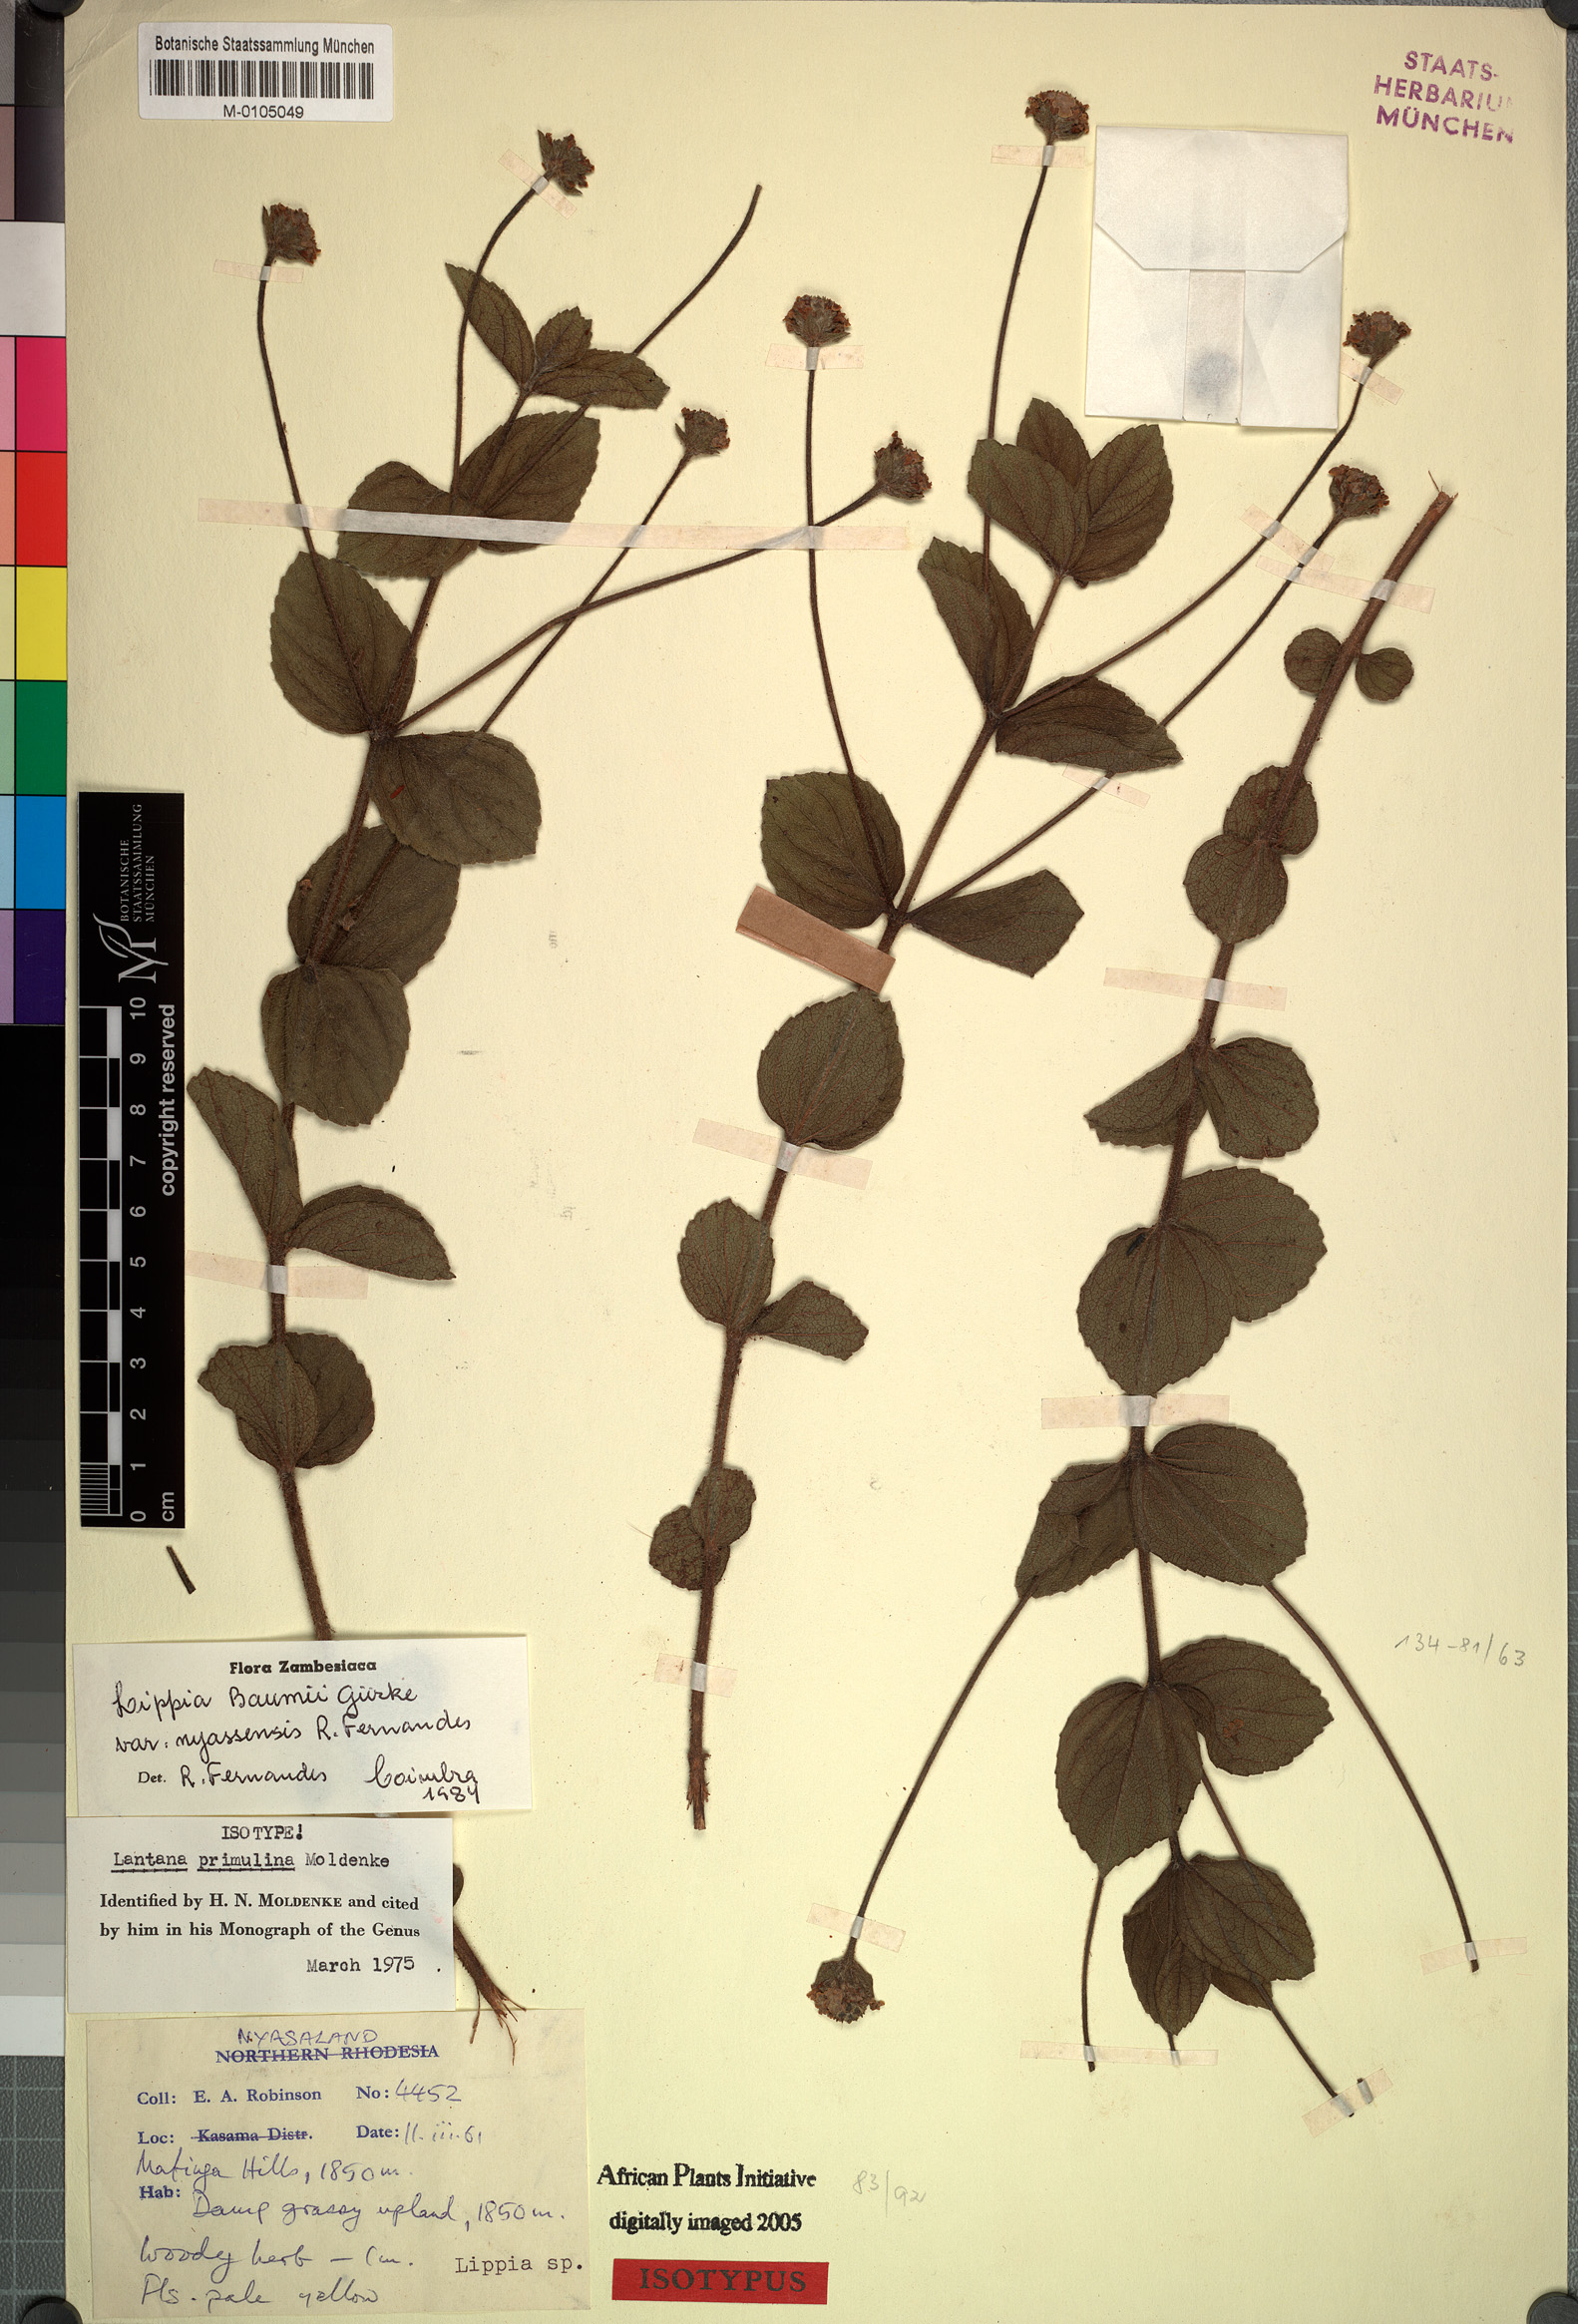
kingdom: Plantae
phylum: Tracheophyta
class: Magnoliopsida
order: Lamiales
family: Verbenaceae
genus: Lippia
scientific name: Lippia baumii
